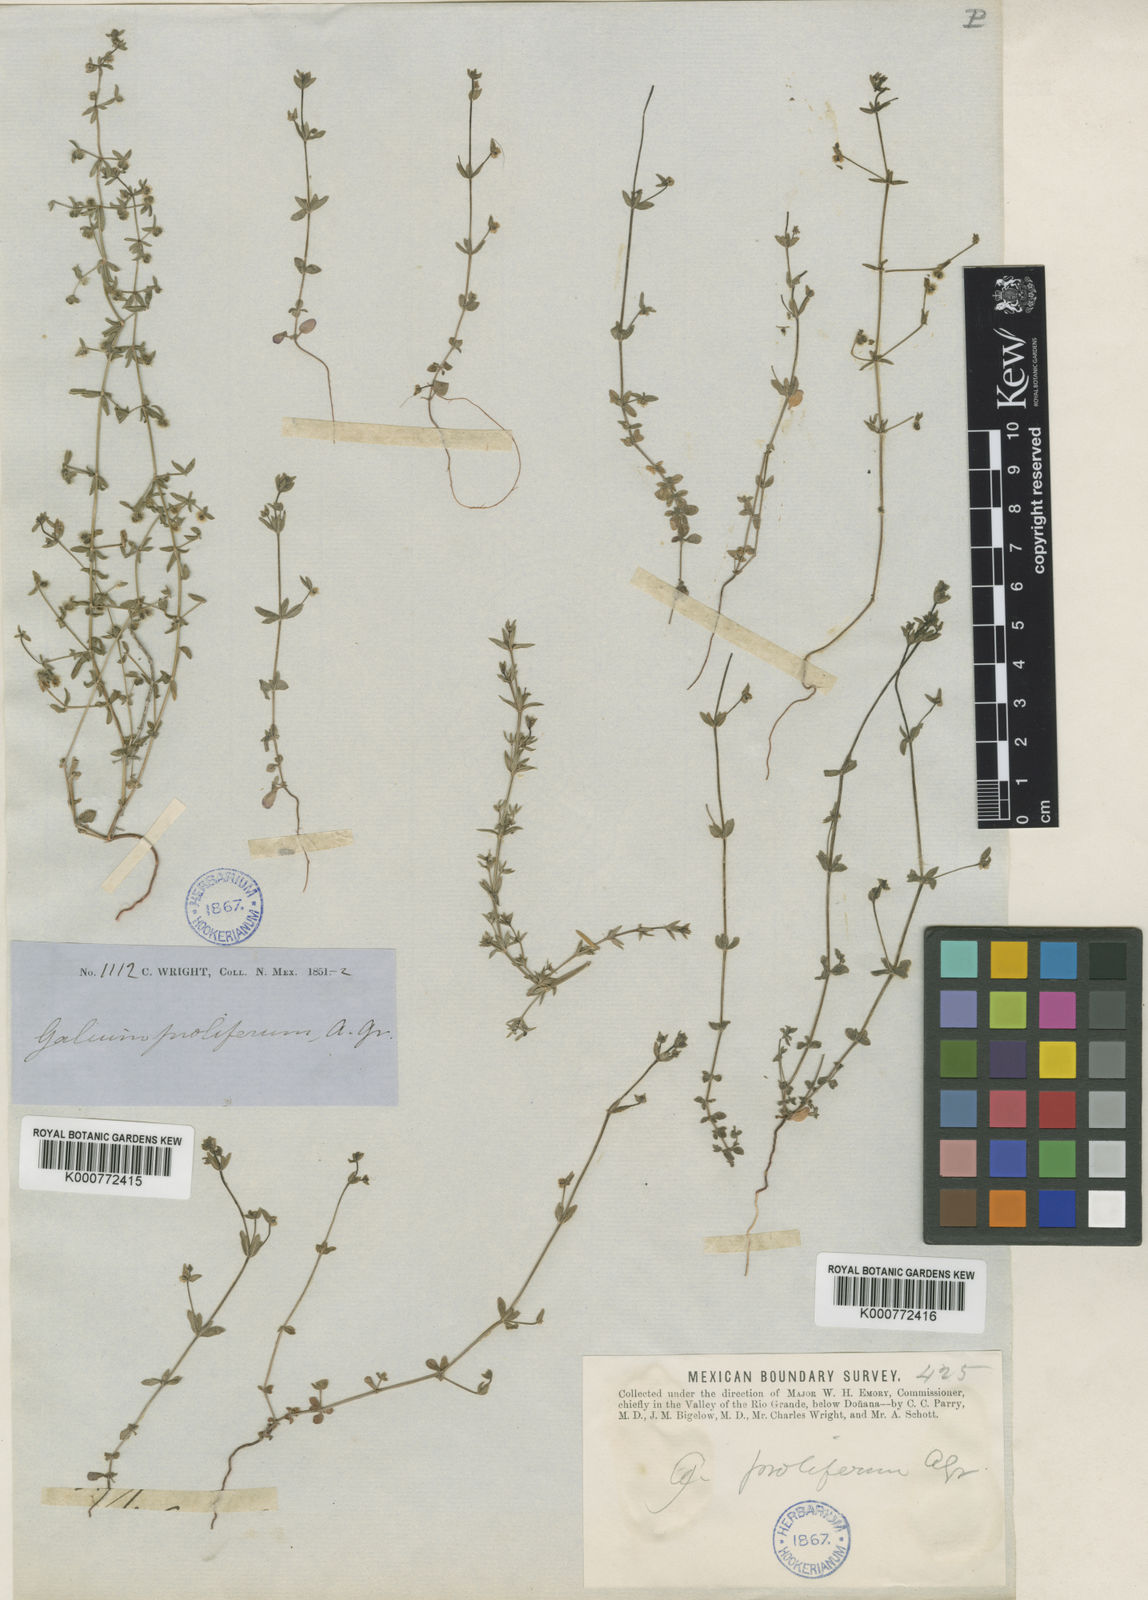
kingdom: Plantae
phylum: Tracheophyta
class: Magnoliopsida
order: Gentianales
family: Rubiaceae
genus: Galium
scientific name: Galium proliferum
